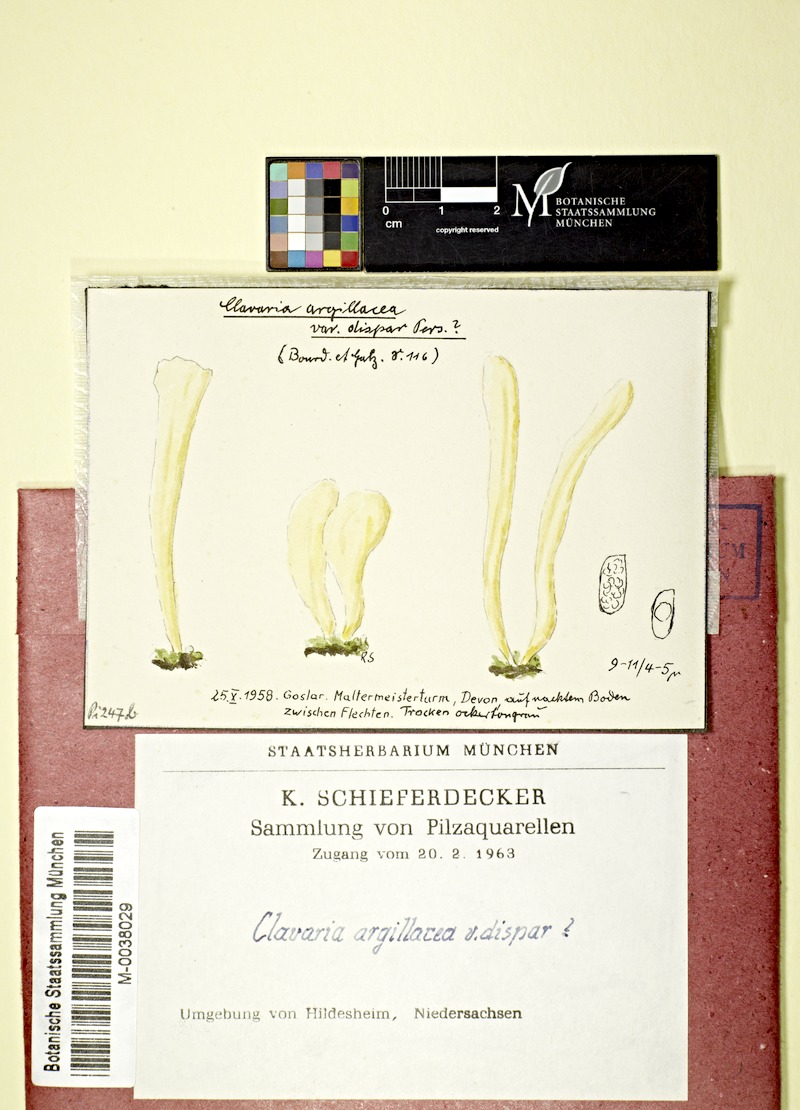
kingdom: Fungi
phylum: Basidiomycota
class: Agaricomycetes
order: Agaricales
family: Clavariaceae
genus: Clavaria
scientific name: Clavaria argillacea
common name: Moor club
